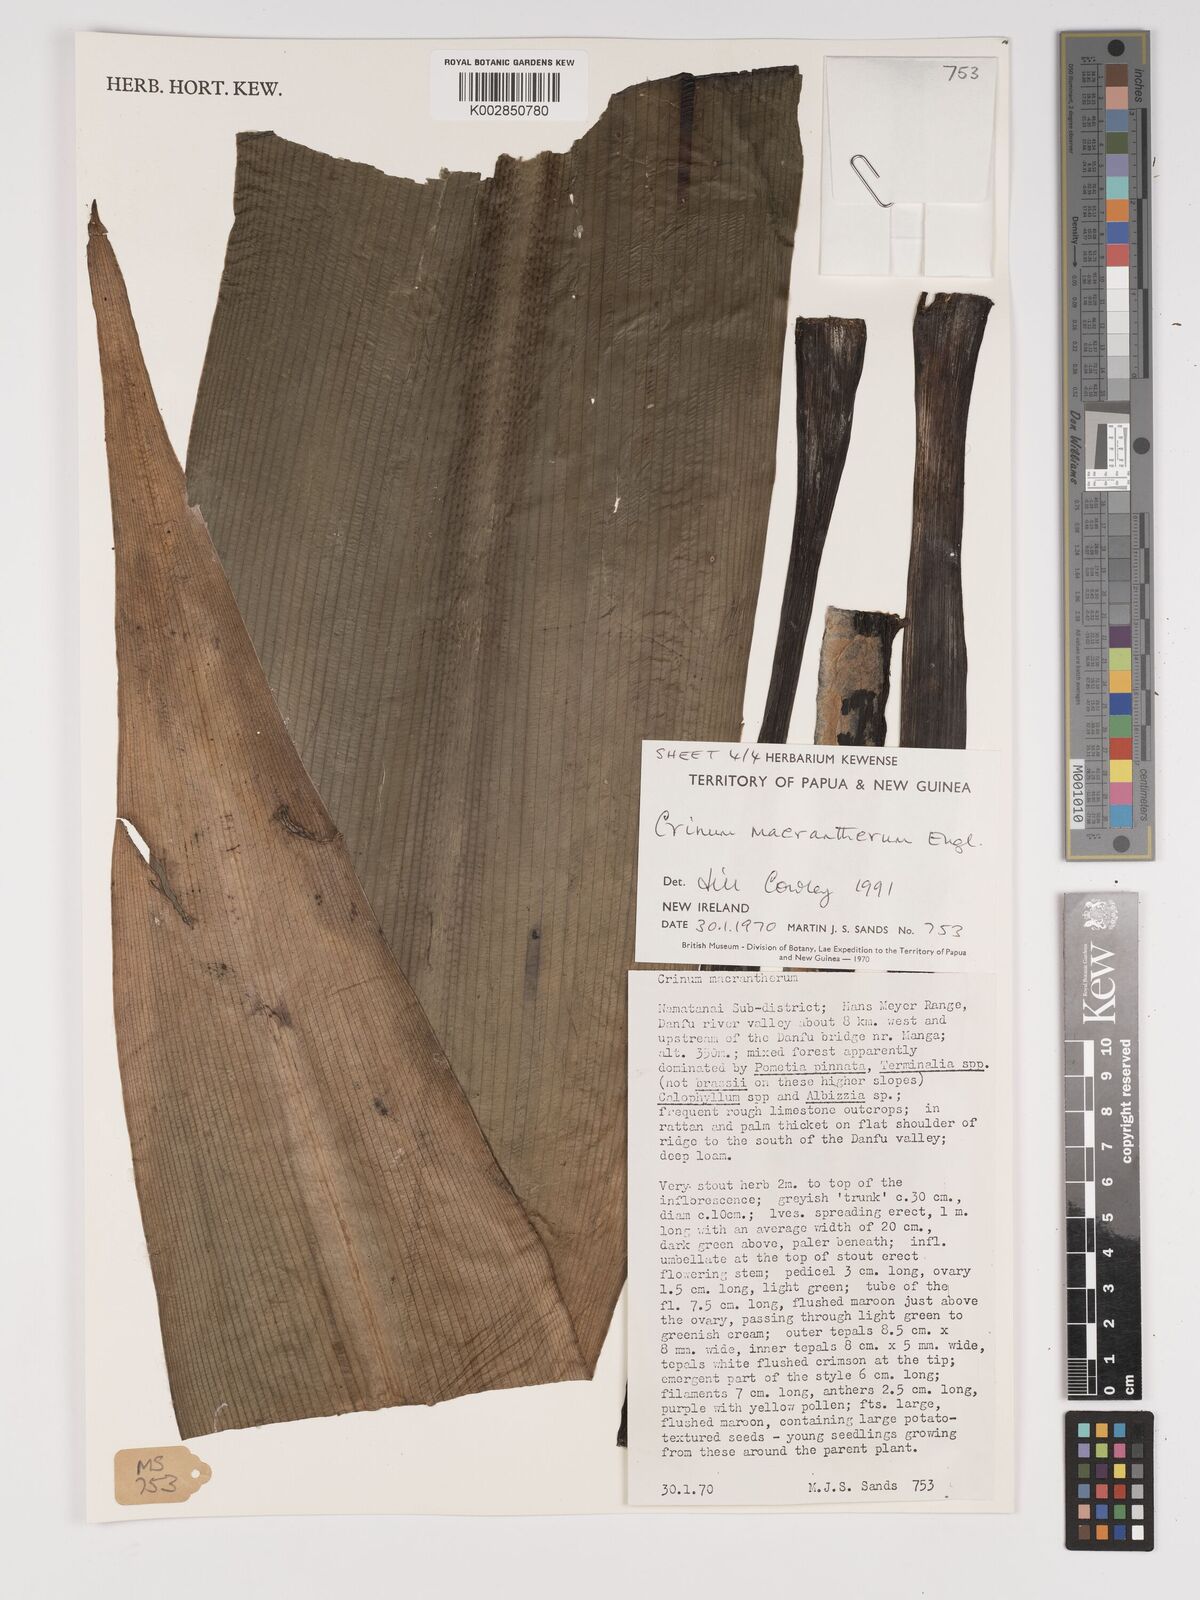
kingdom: Plantae
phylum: Tracheophyta
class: Liliopsida
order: Asparagales
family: Amaryllidaceae
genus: Crinum
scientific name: Crinum asiaticum
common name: Poisonbulb
